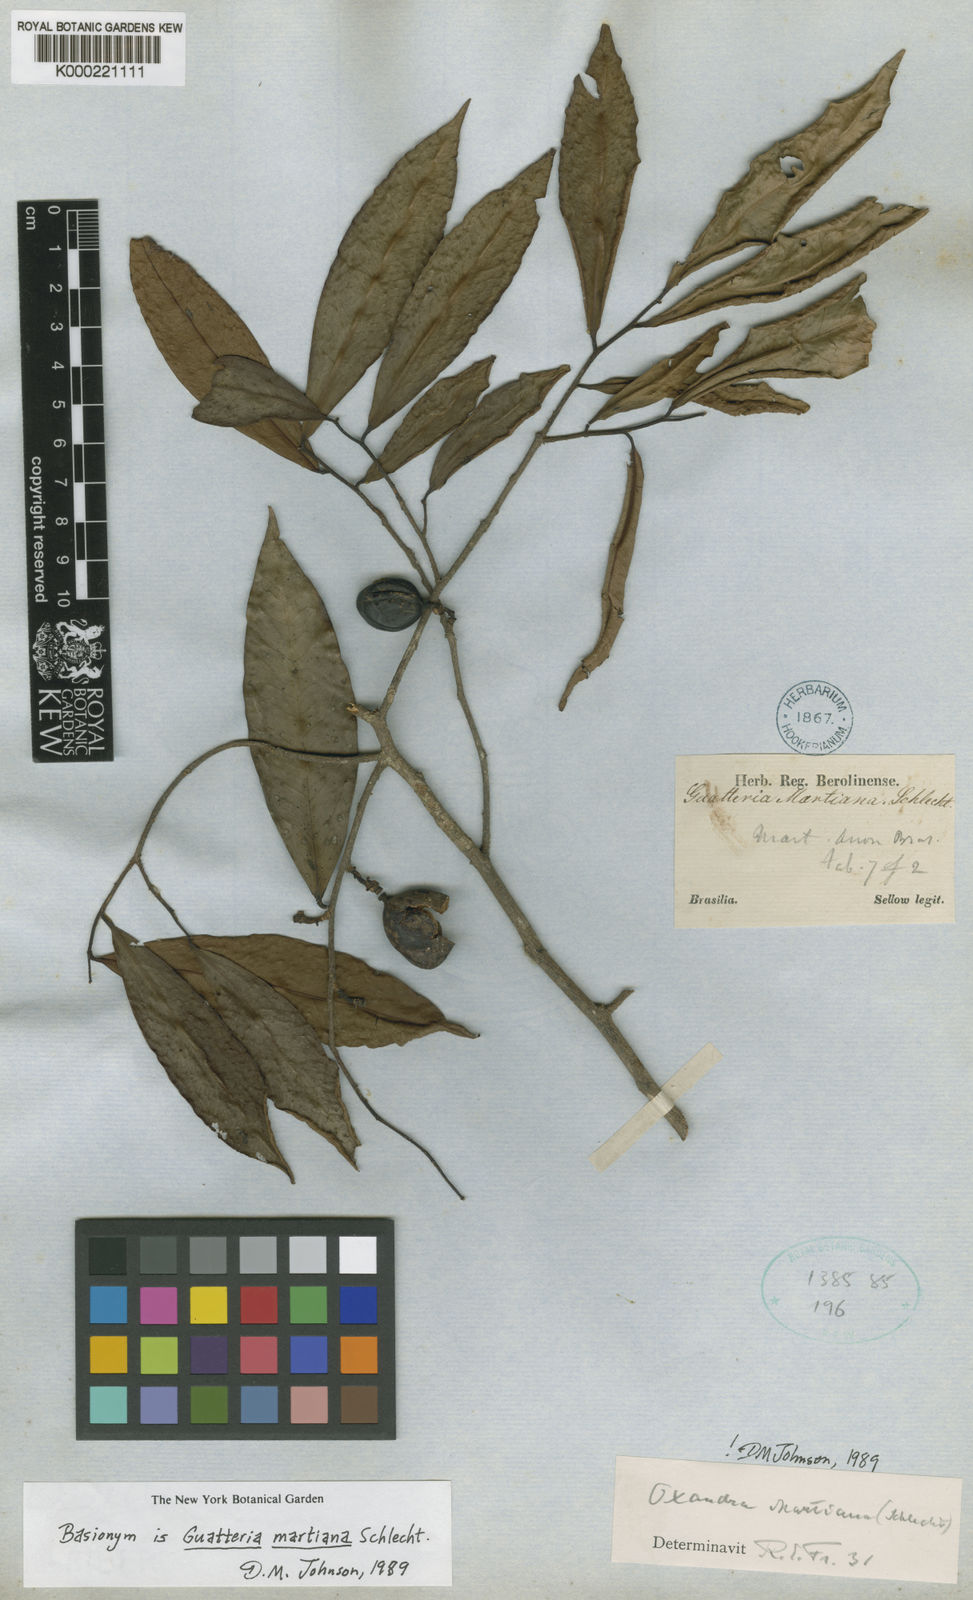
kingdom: Plantae
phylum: Tracheophyta
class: Magnoliopsida
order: Magnoliales
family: Annonaceae
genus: Oxandra
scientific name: Oxandra martiana
